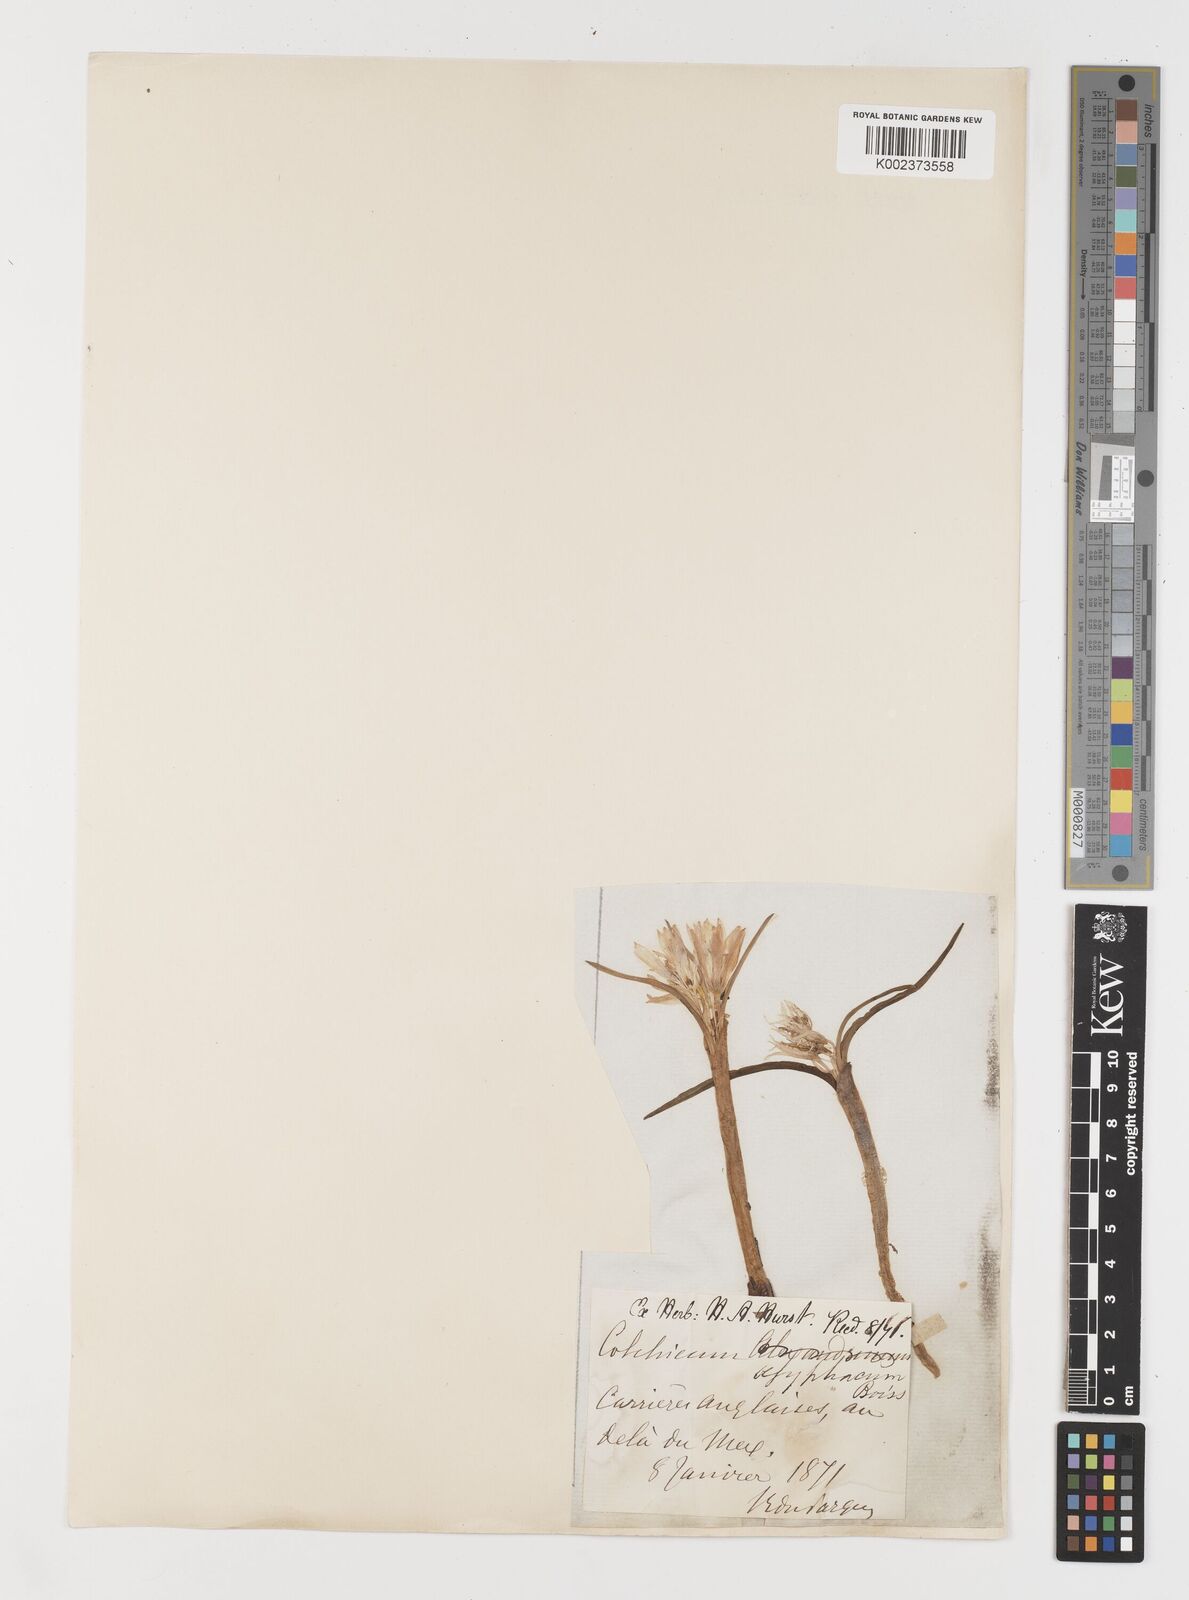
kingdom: Plantae
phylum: Tracheophyta
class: Liliopsida
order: Liliales
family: Colchicaceae
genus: Colchicum
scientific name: Colchicum ritchii
